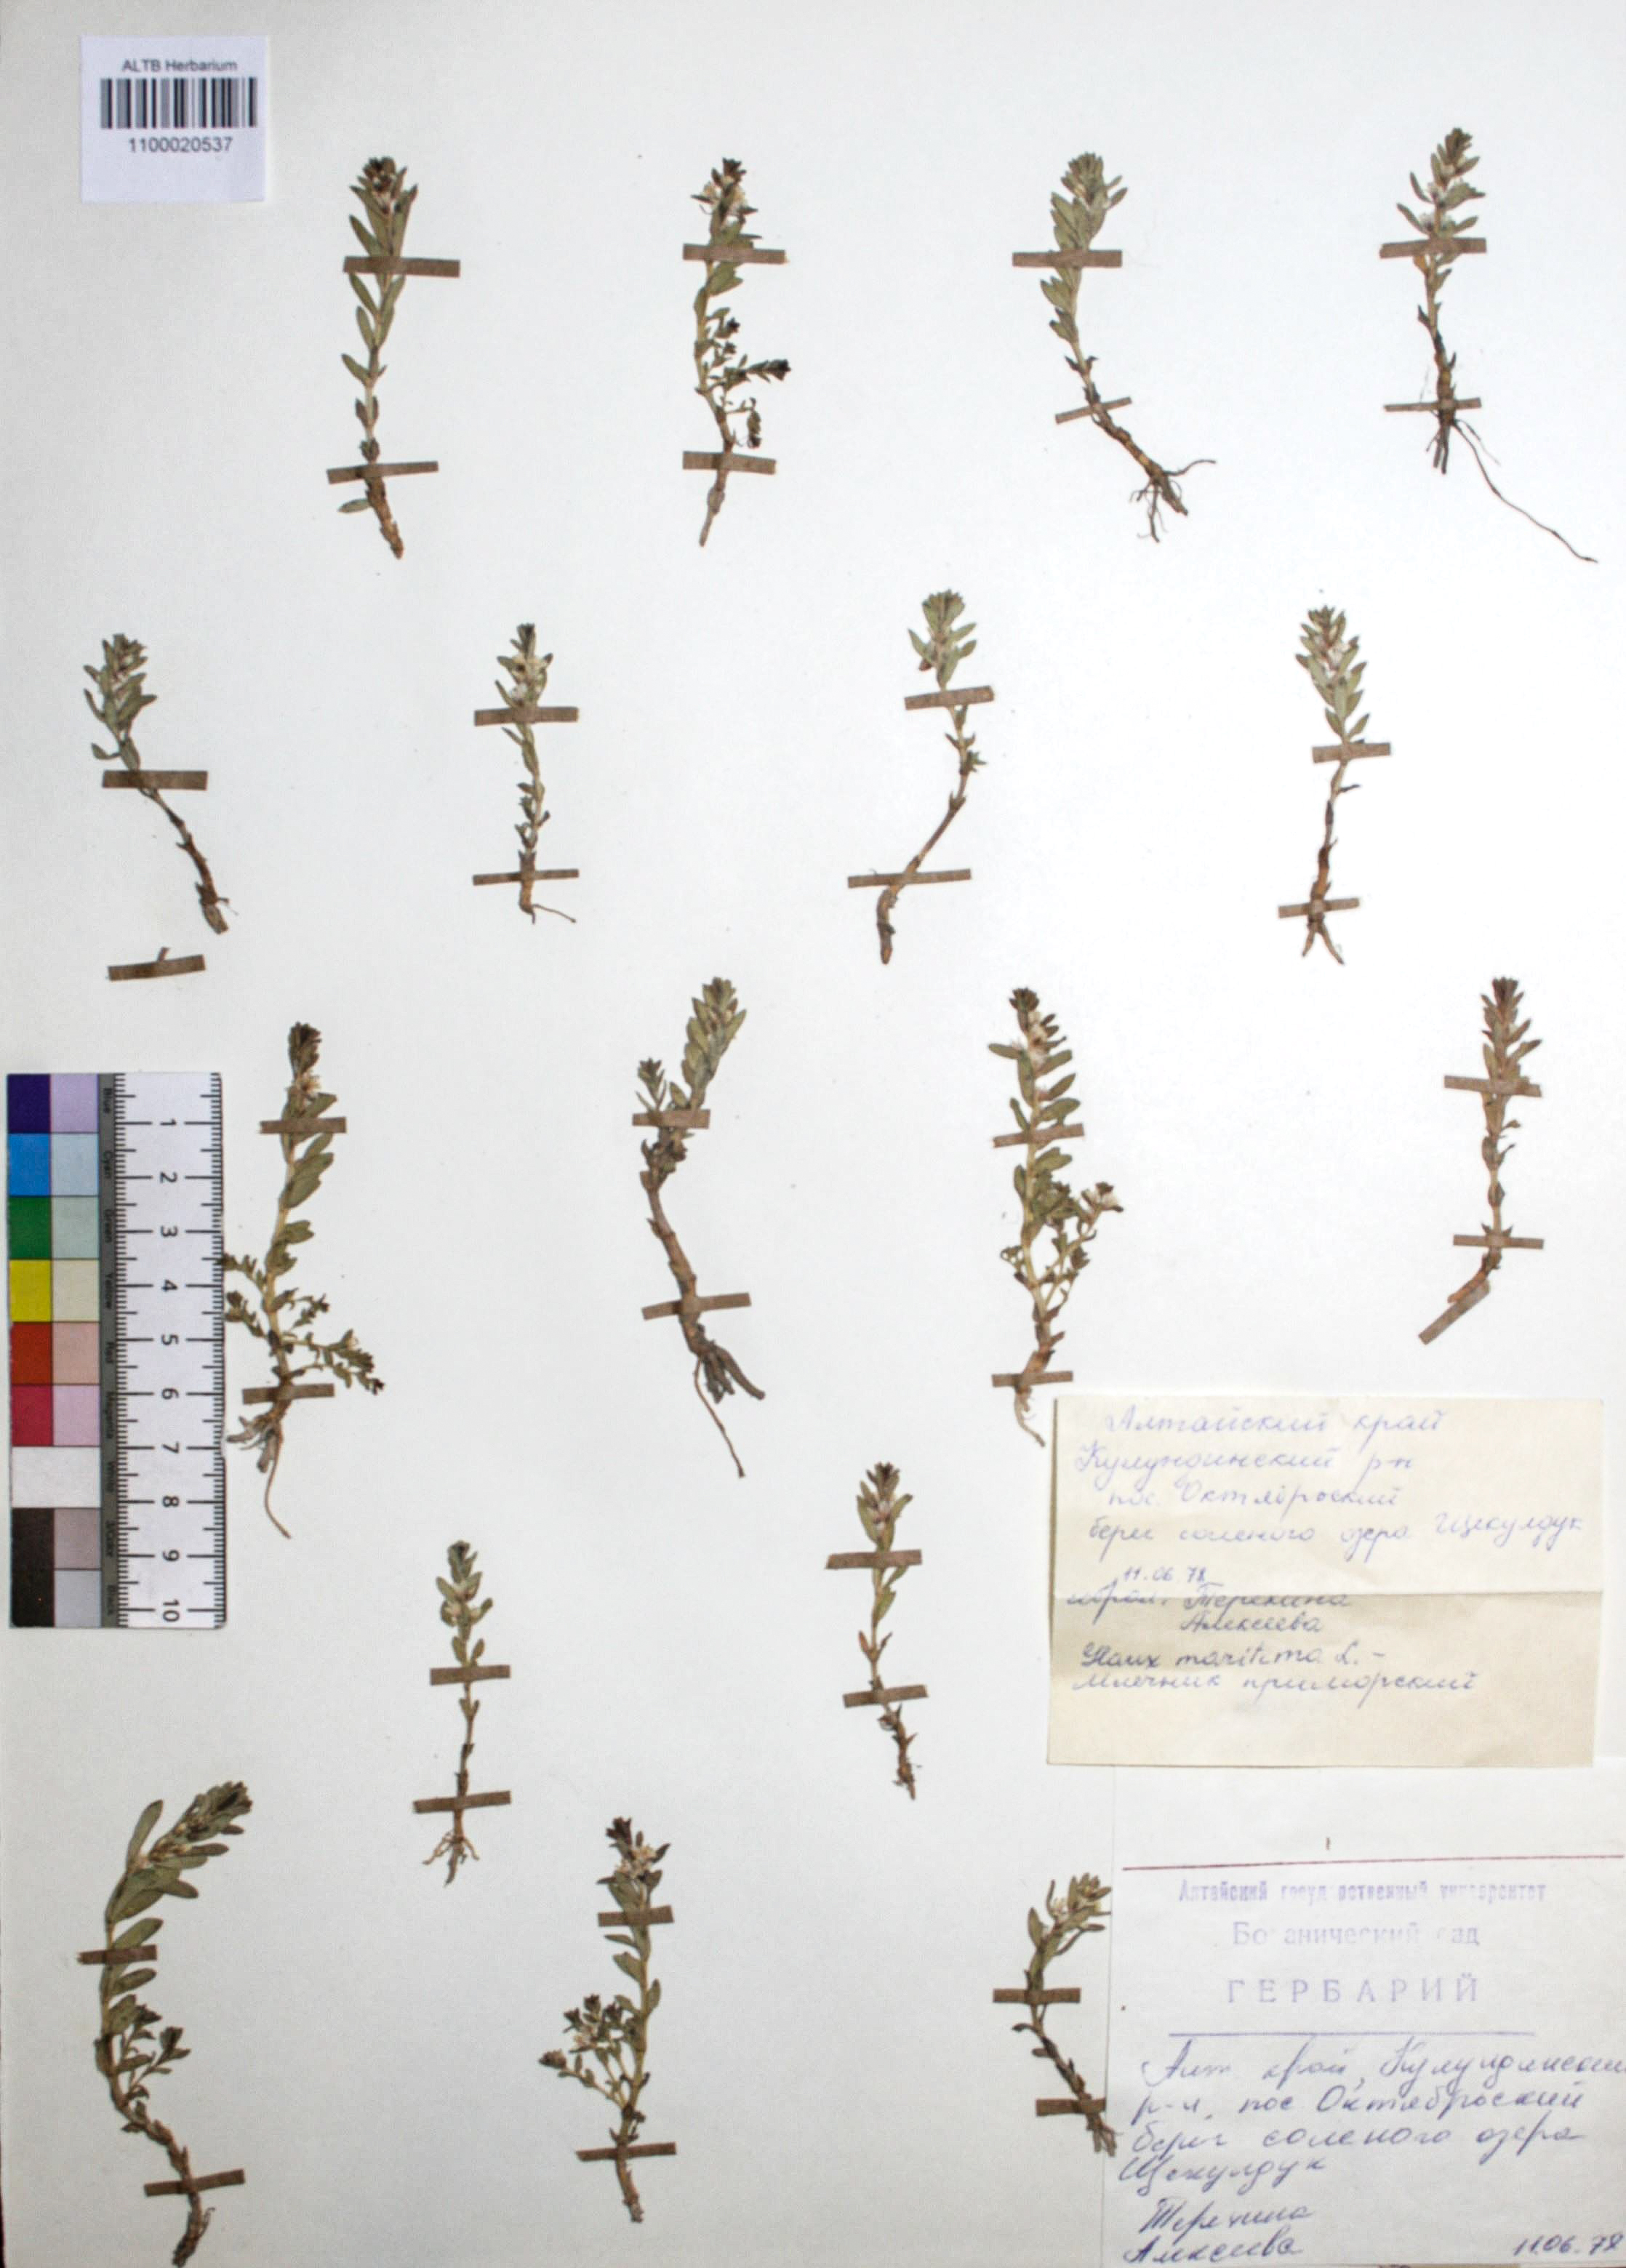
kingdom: Plantae
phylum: Tracheophyta
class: Magnoliopsida
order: Ericales
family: Primulaceae
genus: Lysimachia
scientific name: Lysimachia maritima
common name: Sea milkwort
